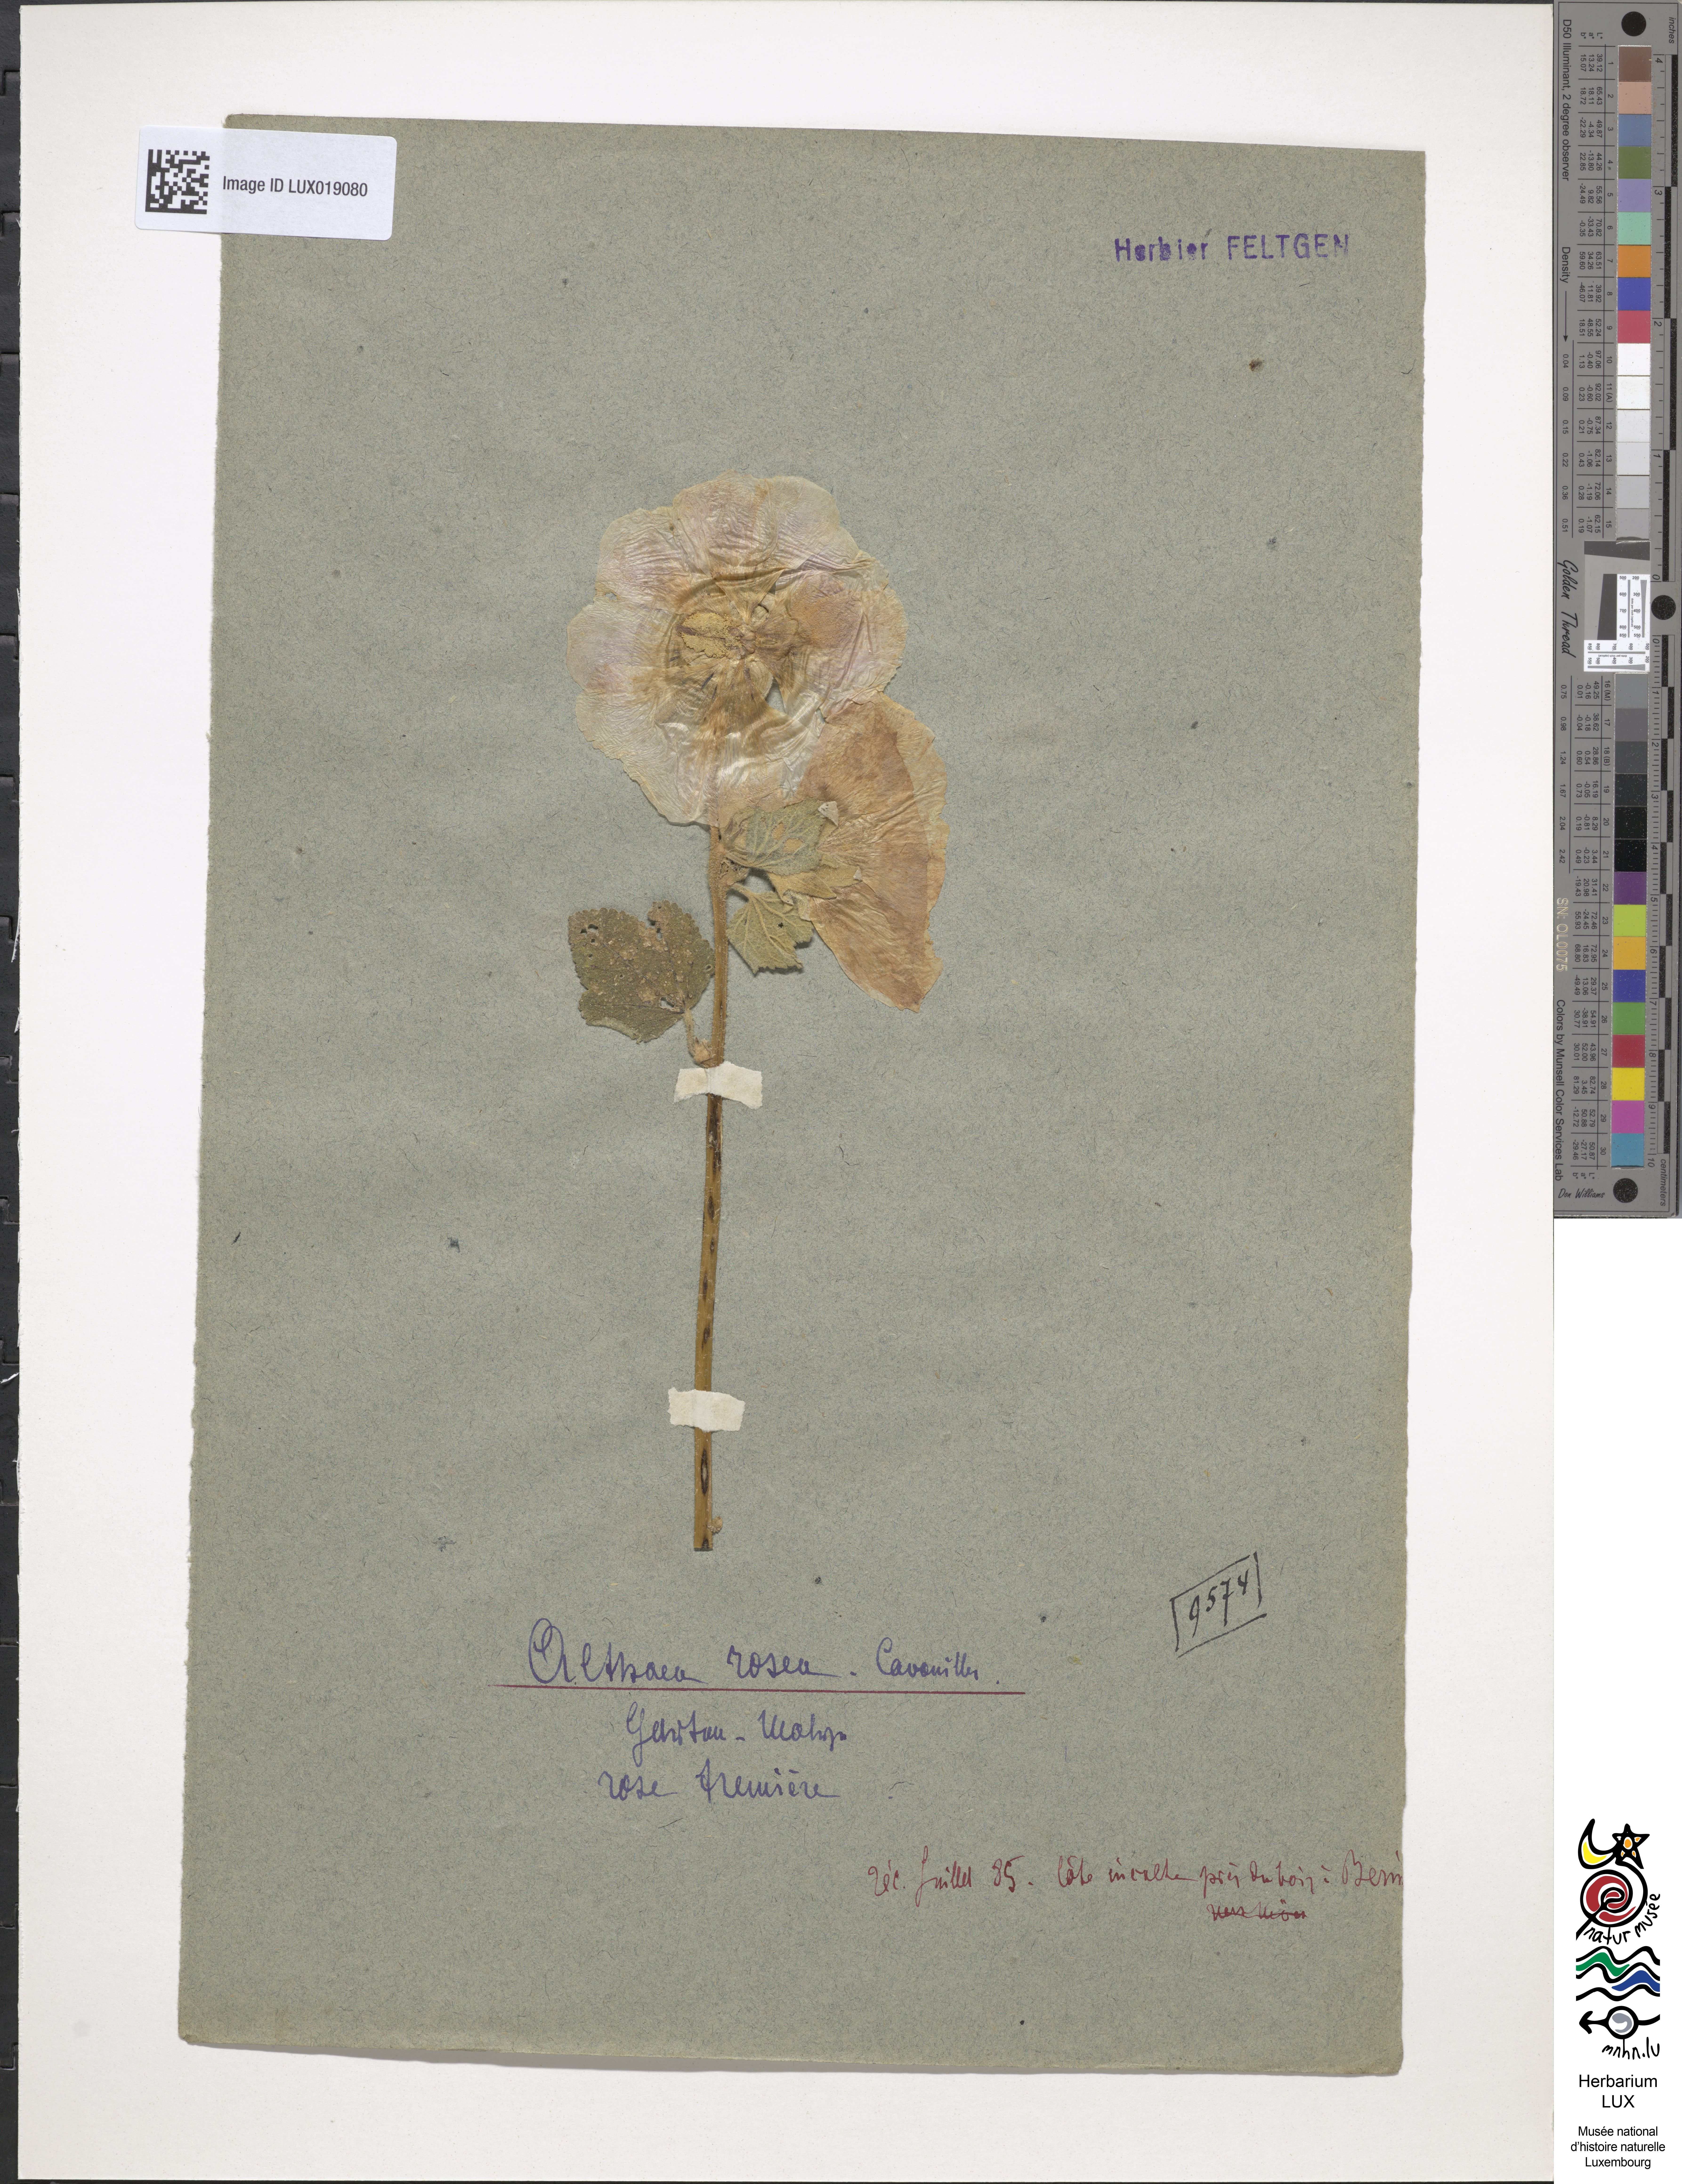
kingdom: Plantae
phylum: Tracheophyta
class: Magnoliopsida
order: Malvales
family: Malvaceae
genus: Alcea
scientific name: Alcea rosea
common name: Hollyhock
